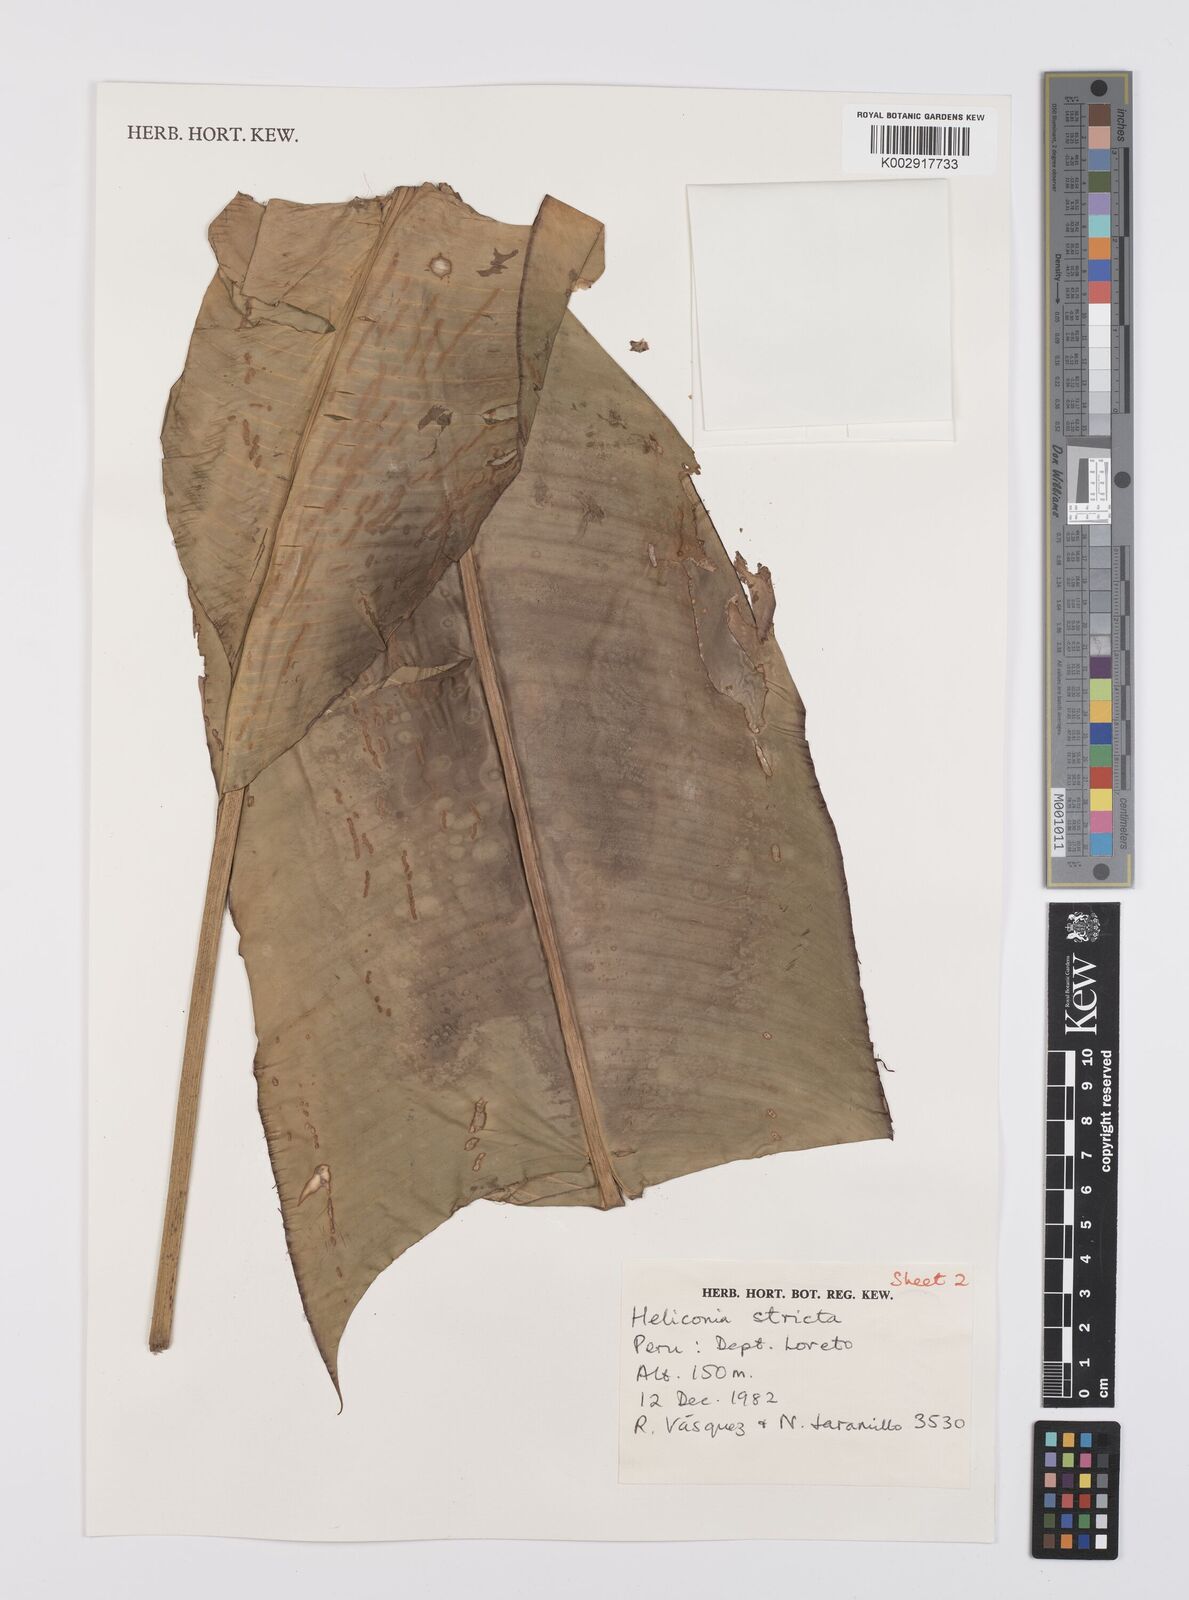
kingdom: Plantae
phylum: Tracheophyta
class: Liliopsida
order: Zingiberales
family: Heliconiaceae
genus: Heliconia
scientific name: Heliconia stricta
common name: Small lobster claw
